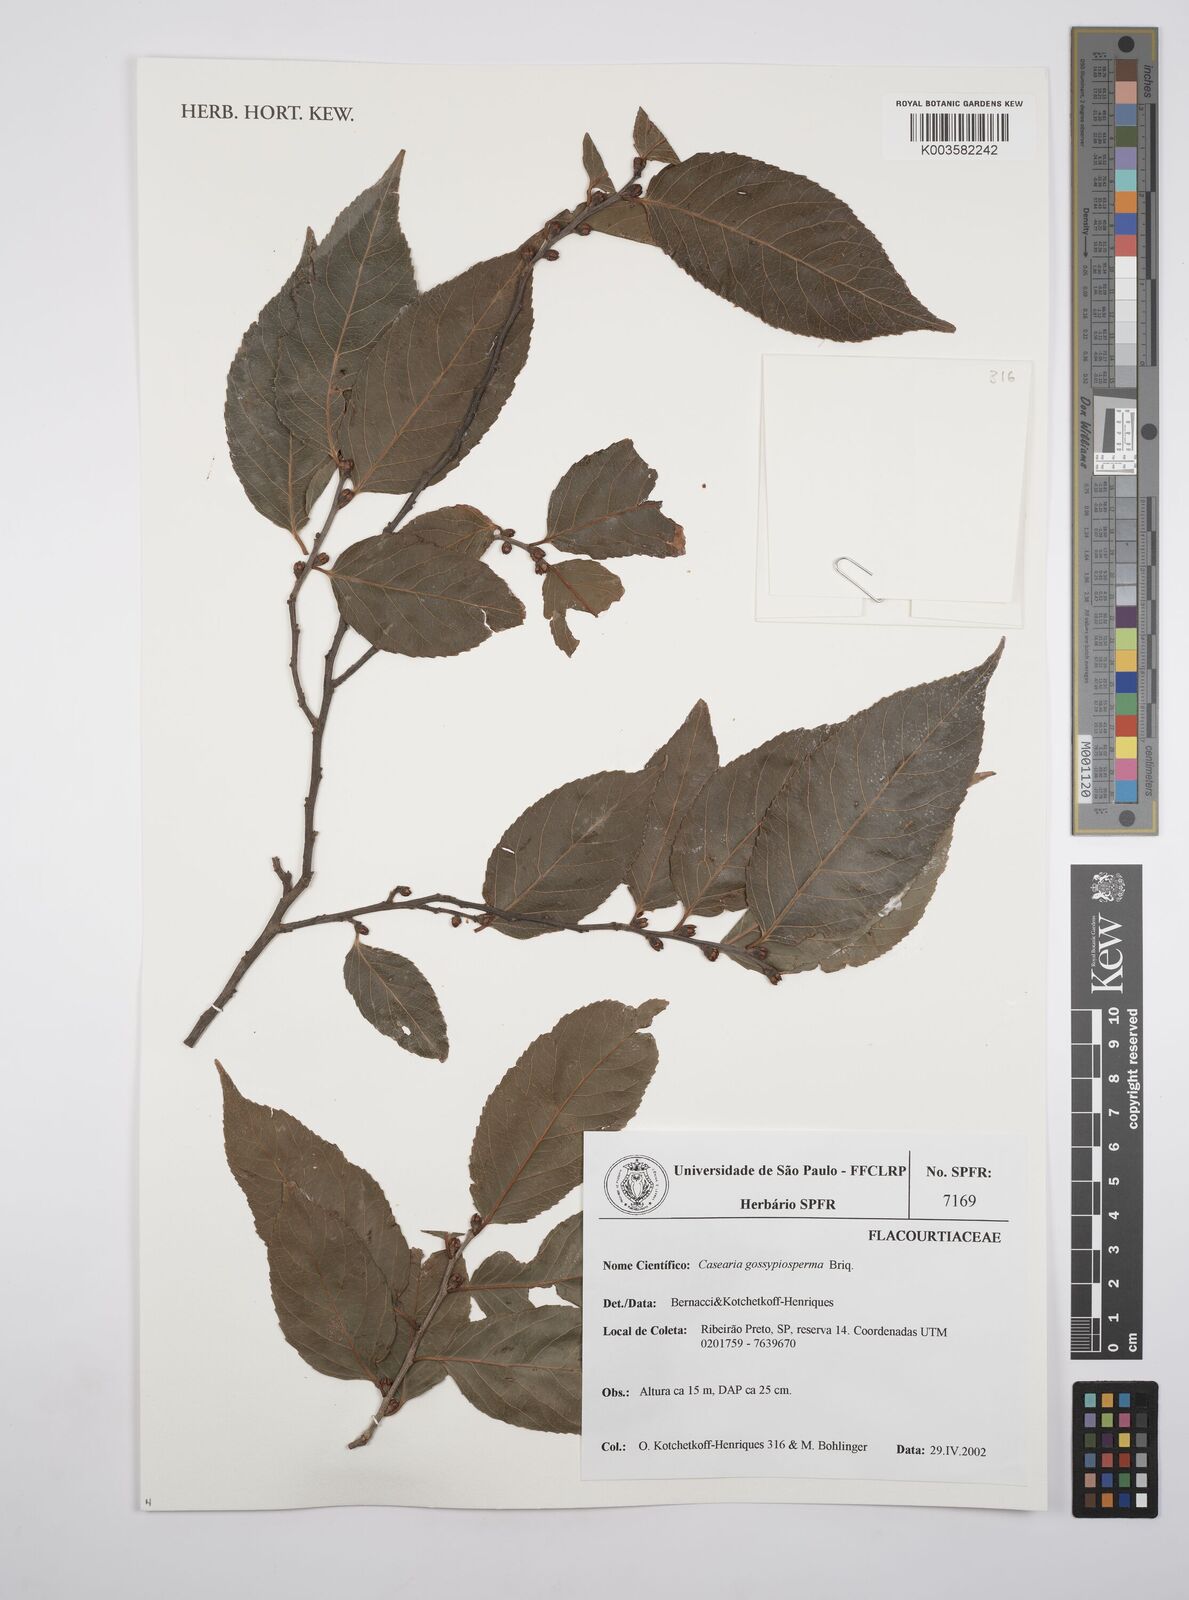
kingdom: Plantae
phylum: Tracheophyta
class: Magnoliopsida
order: Malpighiales
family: Salicaceae
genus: Casearia
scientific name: Casearia gossypiosperma
